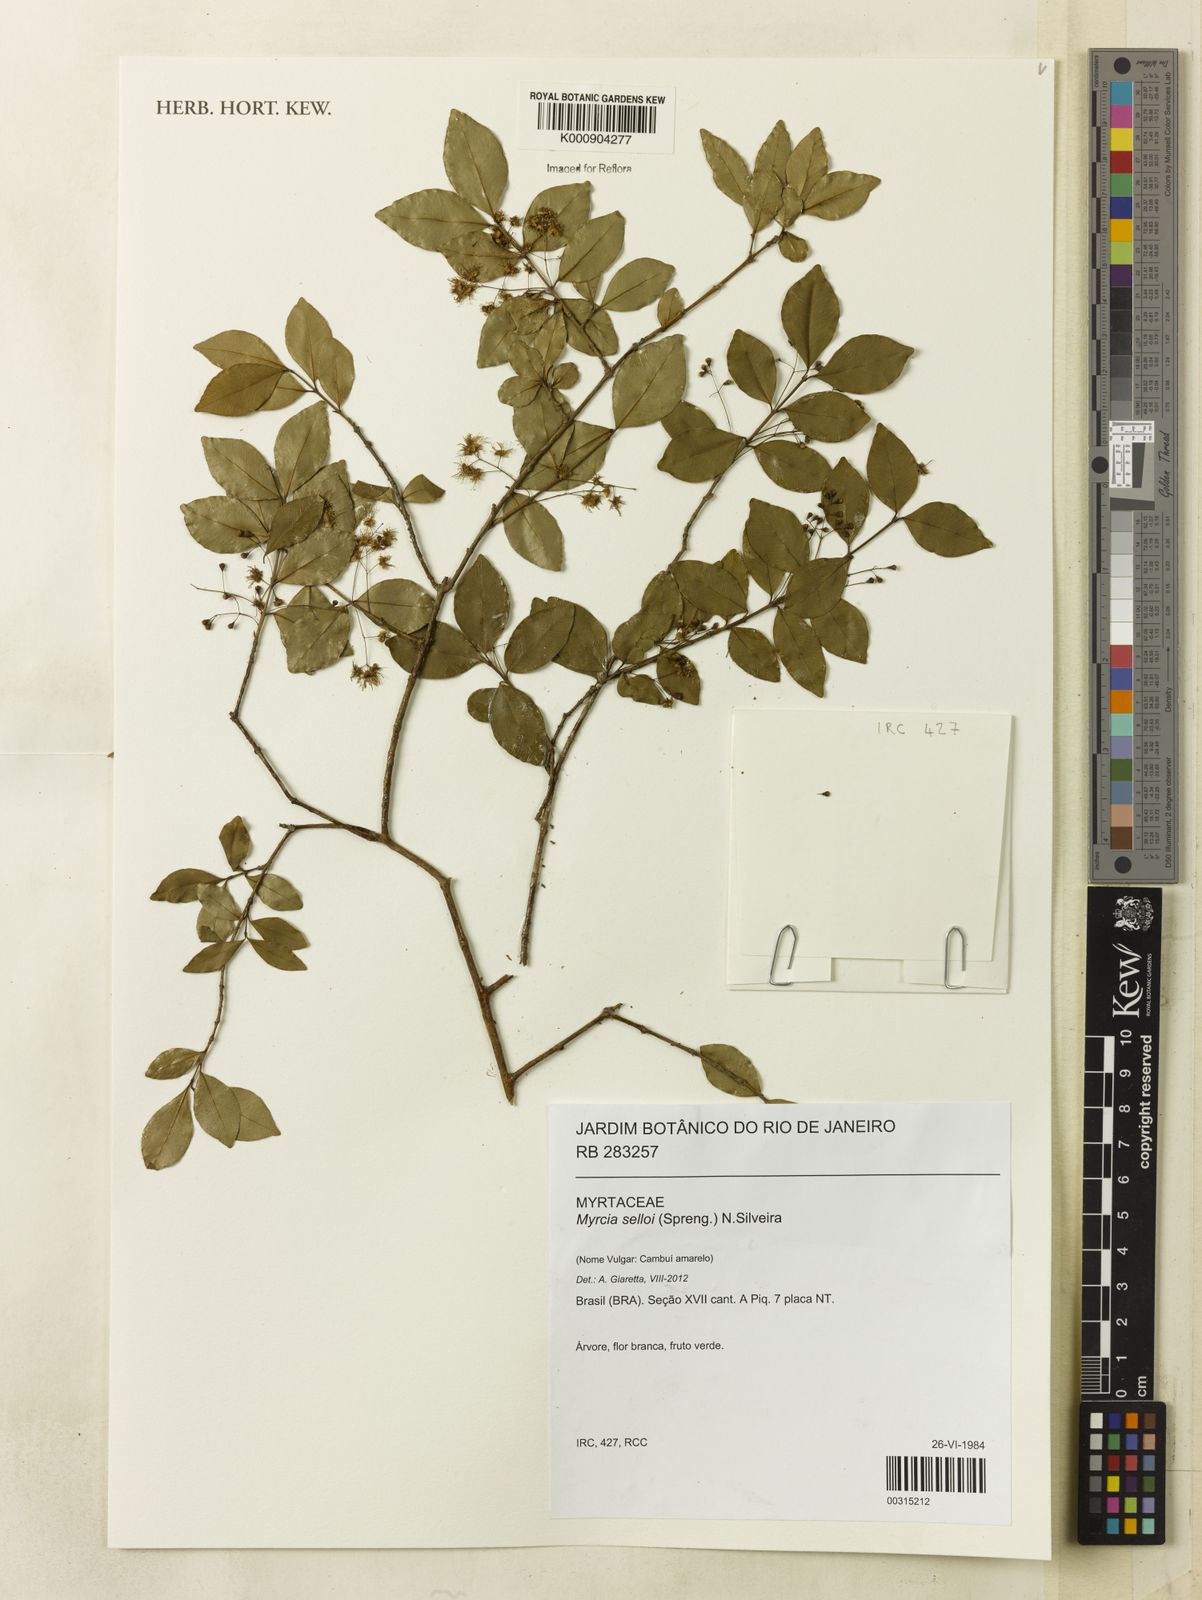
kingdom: Plantae
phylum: Tracheophyta
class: Magnoliopsida
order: Myrtales
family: Myrtaceae
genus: Myrcia
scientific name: Myrcia selloi
